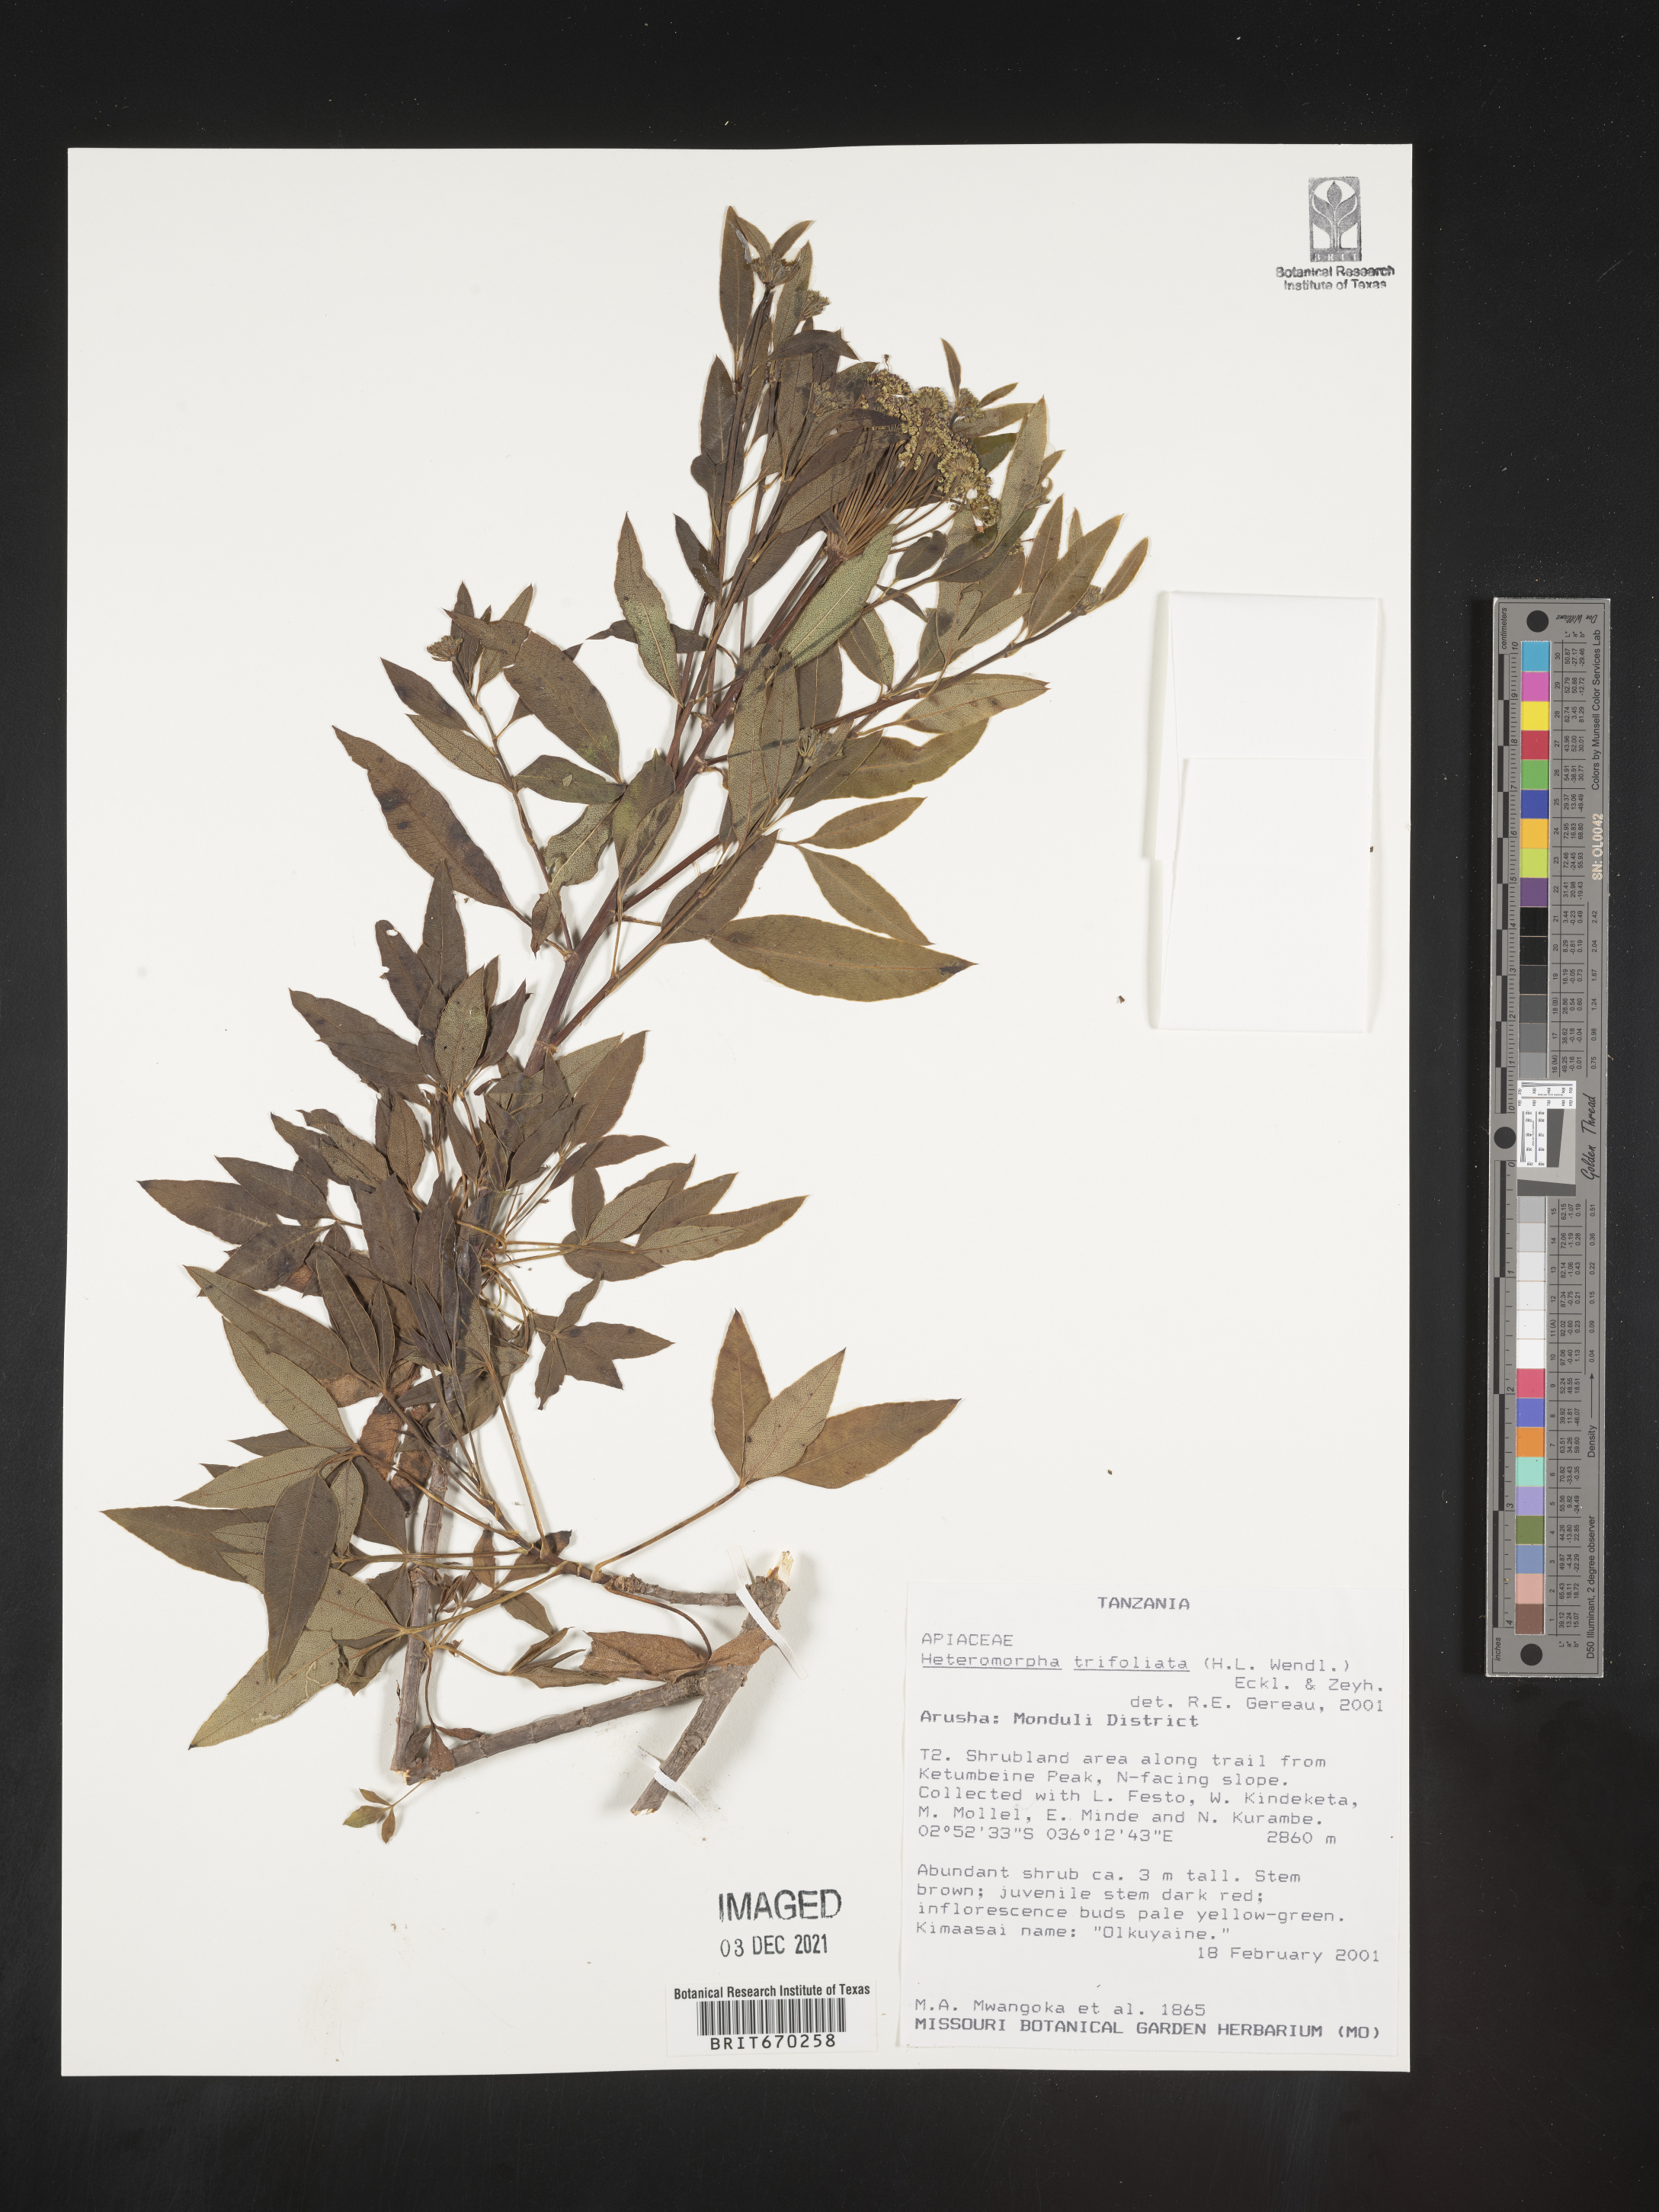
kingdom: Plantae
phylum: Tracheophyta
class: Magnoliopsida
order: Apiales
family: Apiaceae
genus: Heteromorpha
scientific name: Heteromorpha
